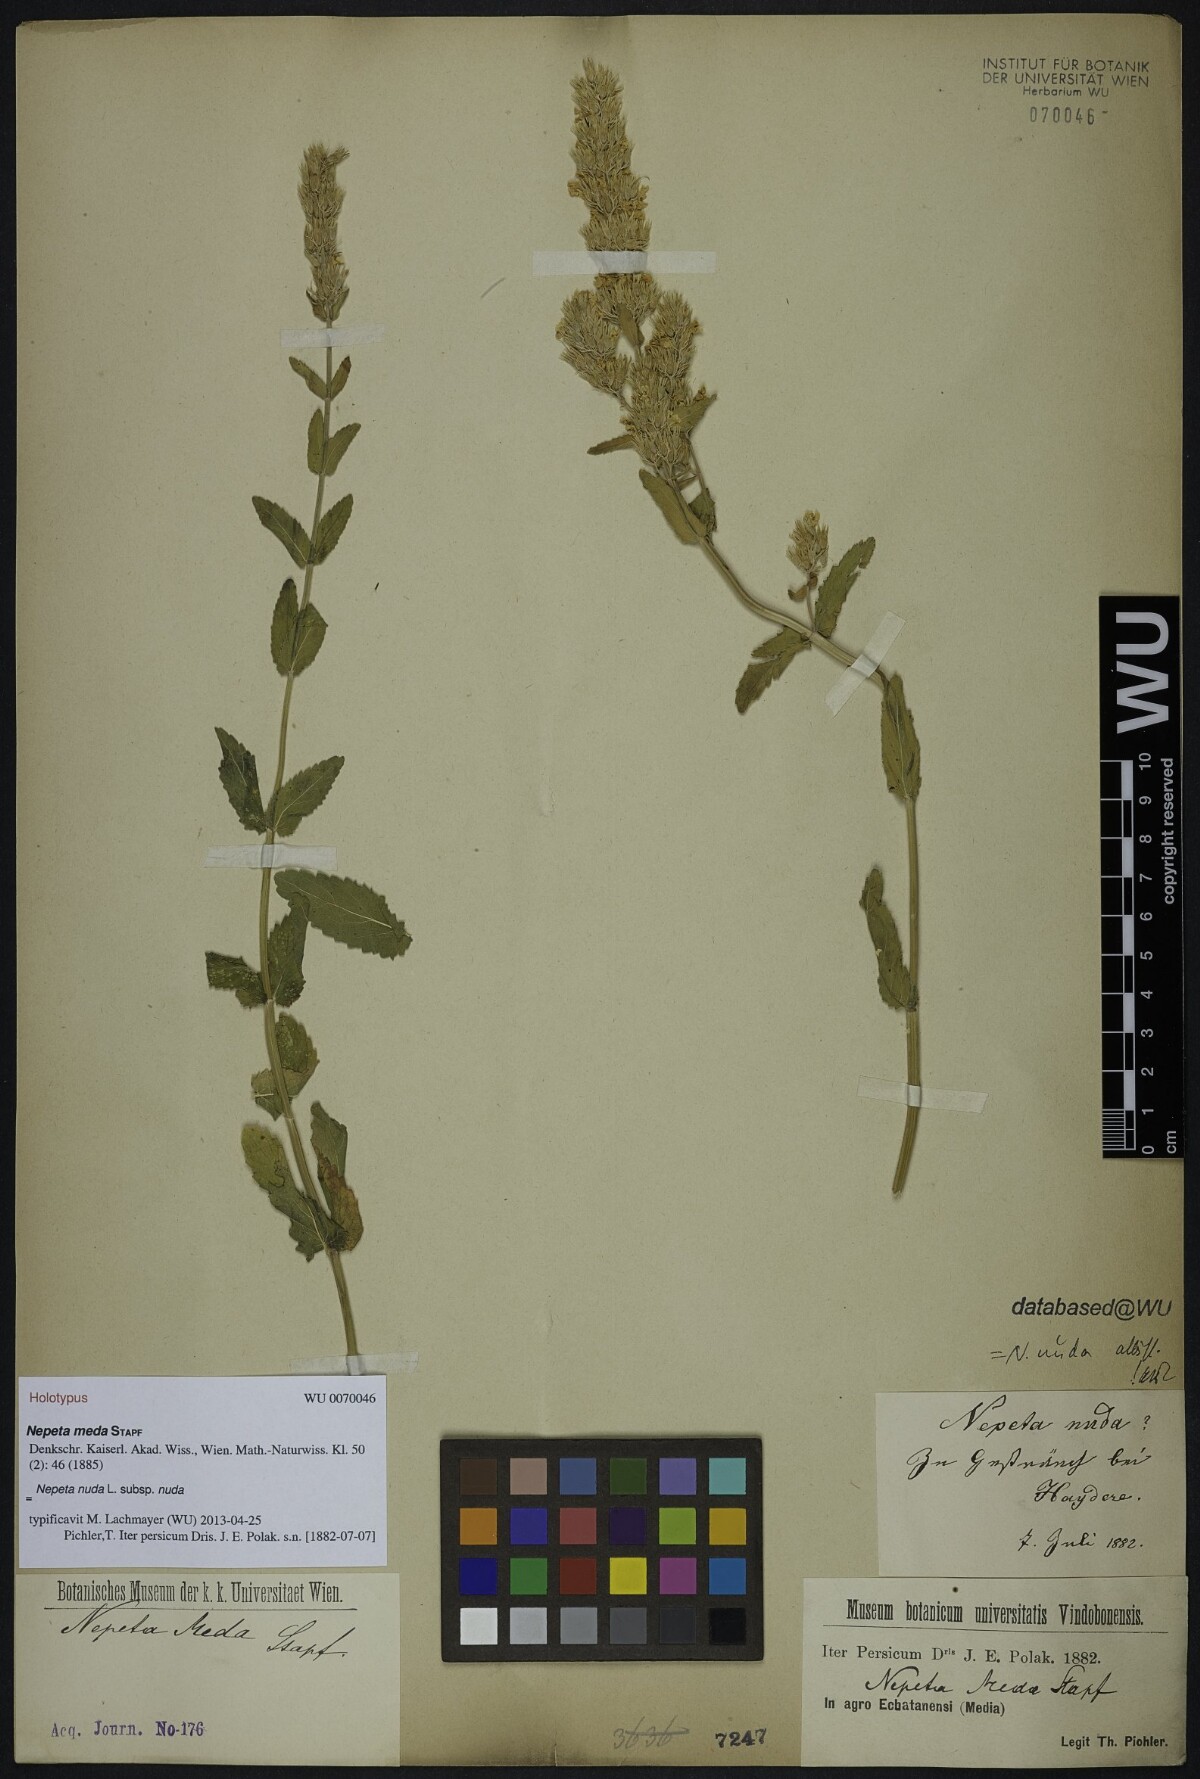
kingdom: Plantae
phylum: Tracheophyta
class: Magnoliopsida
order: Lamiales
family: Lamiaceae
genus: Nepeta
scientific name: Nepeta nuda
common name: Hairless catmint
